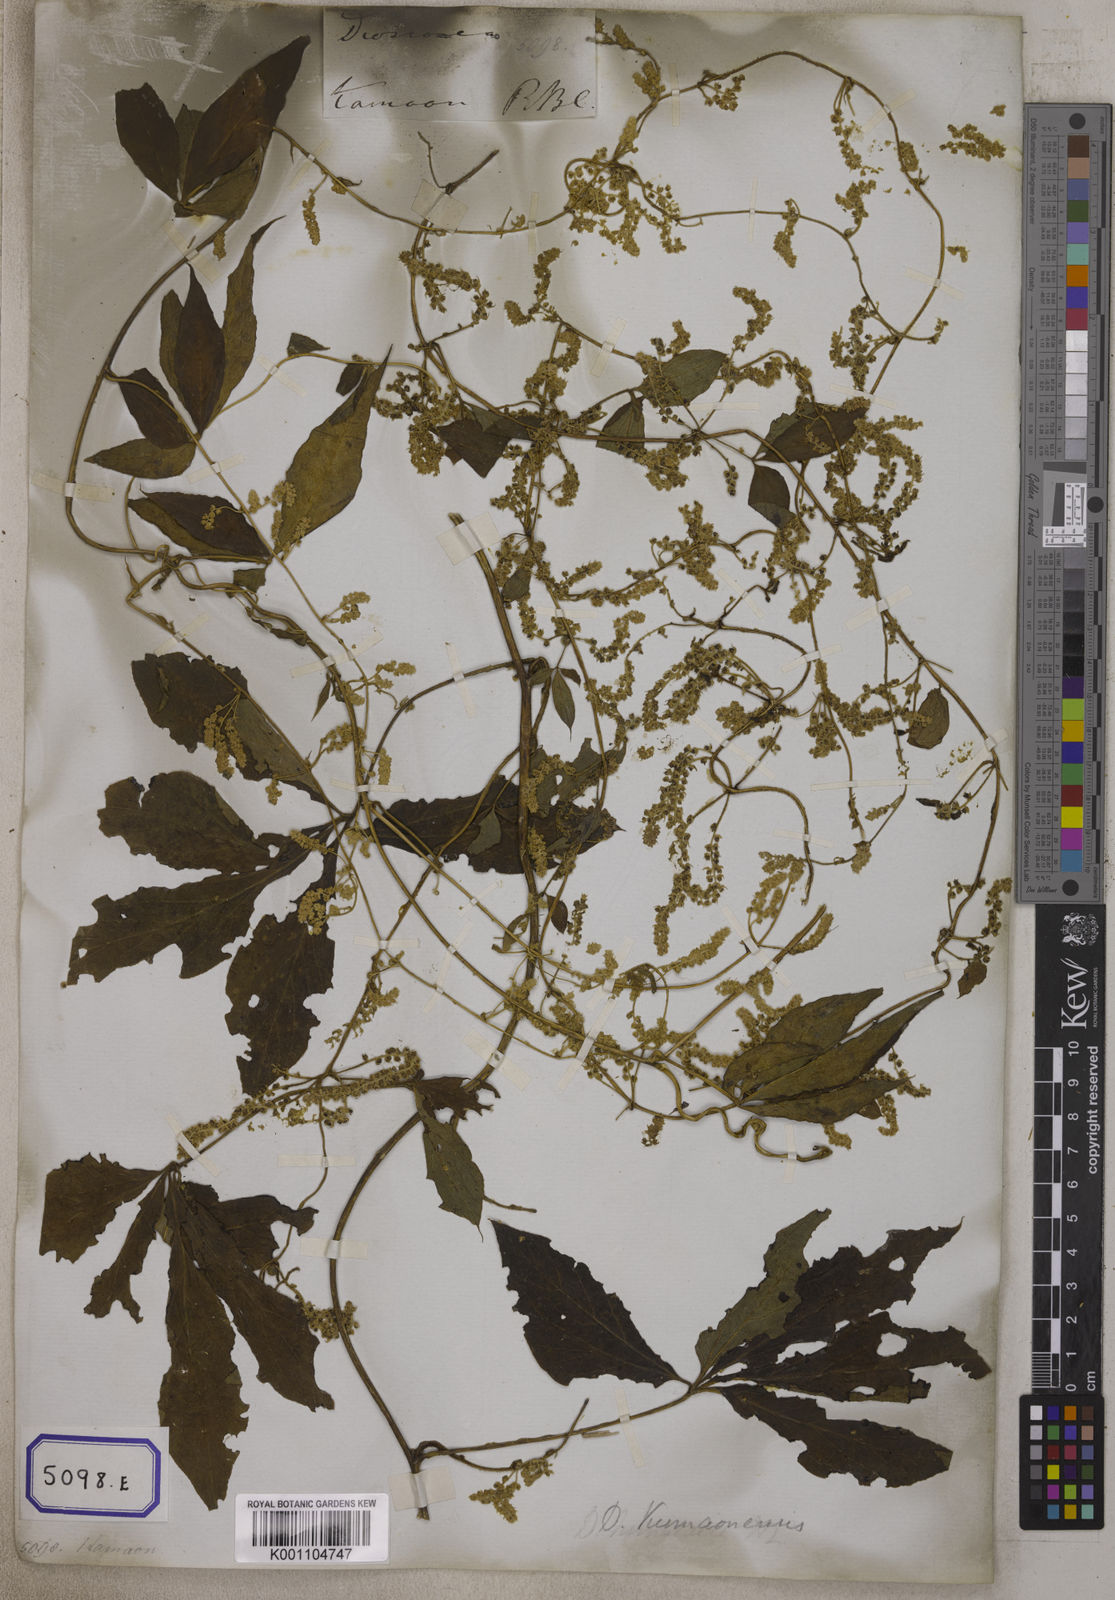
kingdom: Plantae
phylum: Tracheophyta
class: Liliopsida
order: Dioscoreales
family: Dioscoreaceae
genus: Dioscorea
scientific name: Dioscorea
